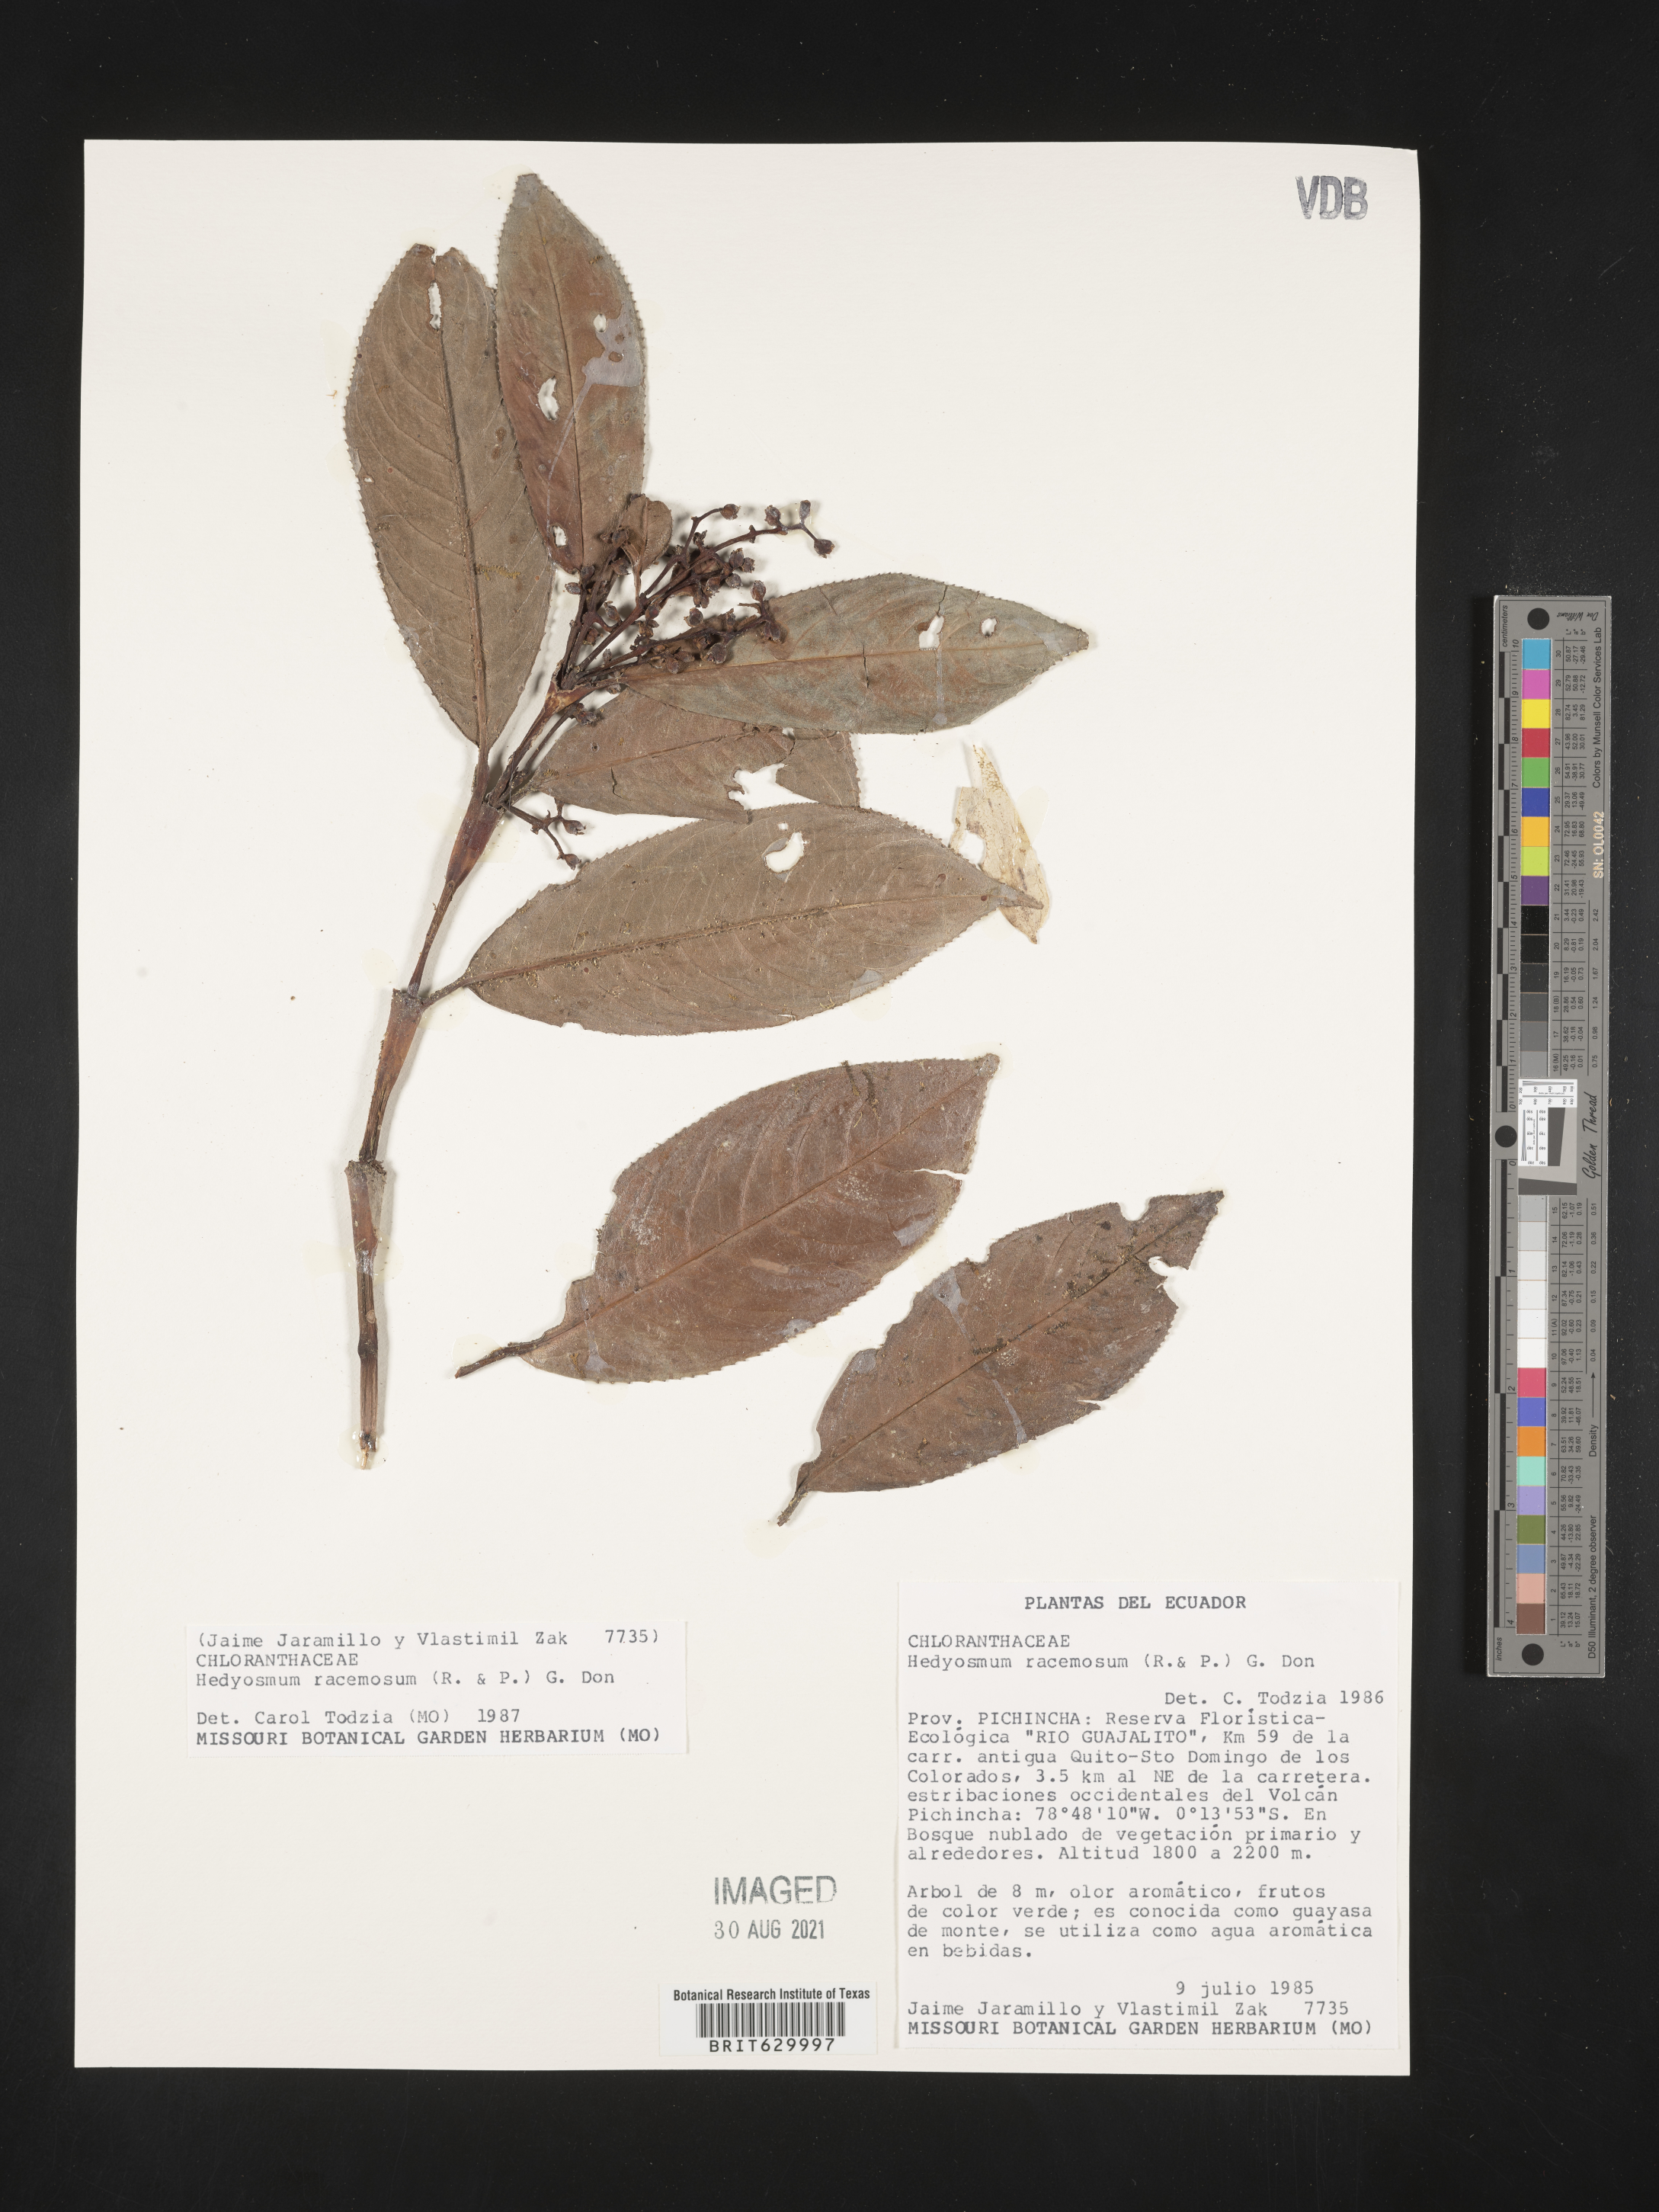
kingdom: Plantae
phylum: Tracheophyta
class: Magnoliopsida
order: Chloranthales
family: Chloranthaceae
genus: Hedyosmum
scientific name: Hedyosmum racemosum
